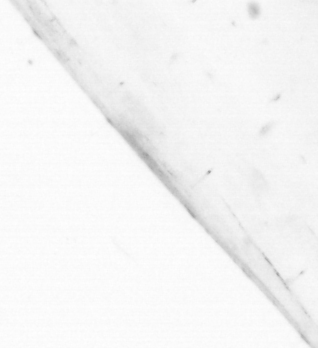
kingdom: Animalia
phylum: Chaetognatha
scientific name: Chaetognatha
